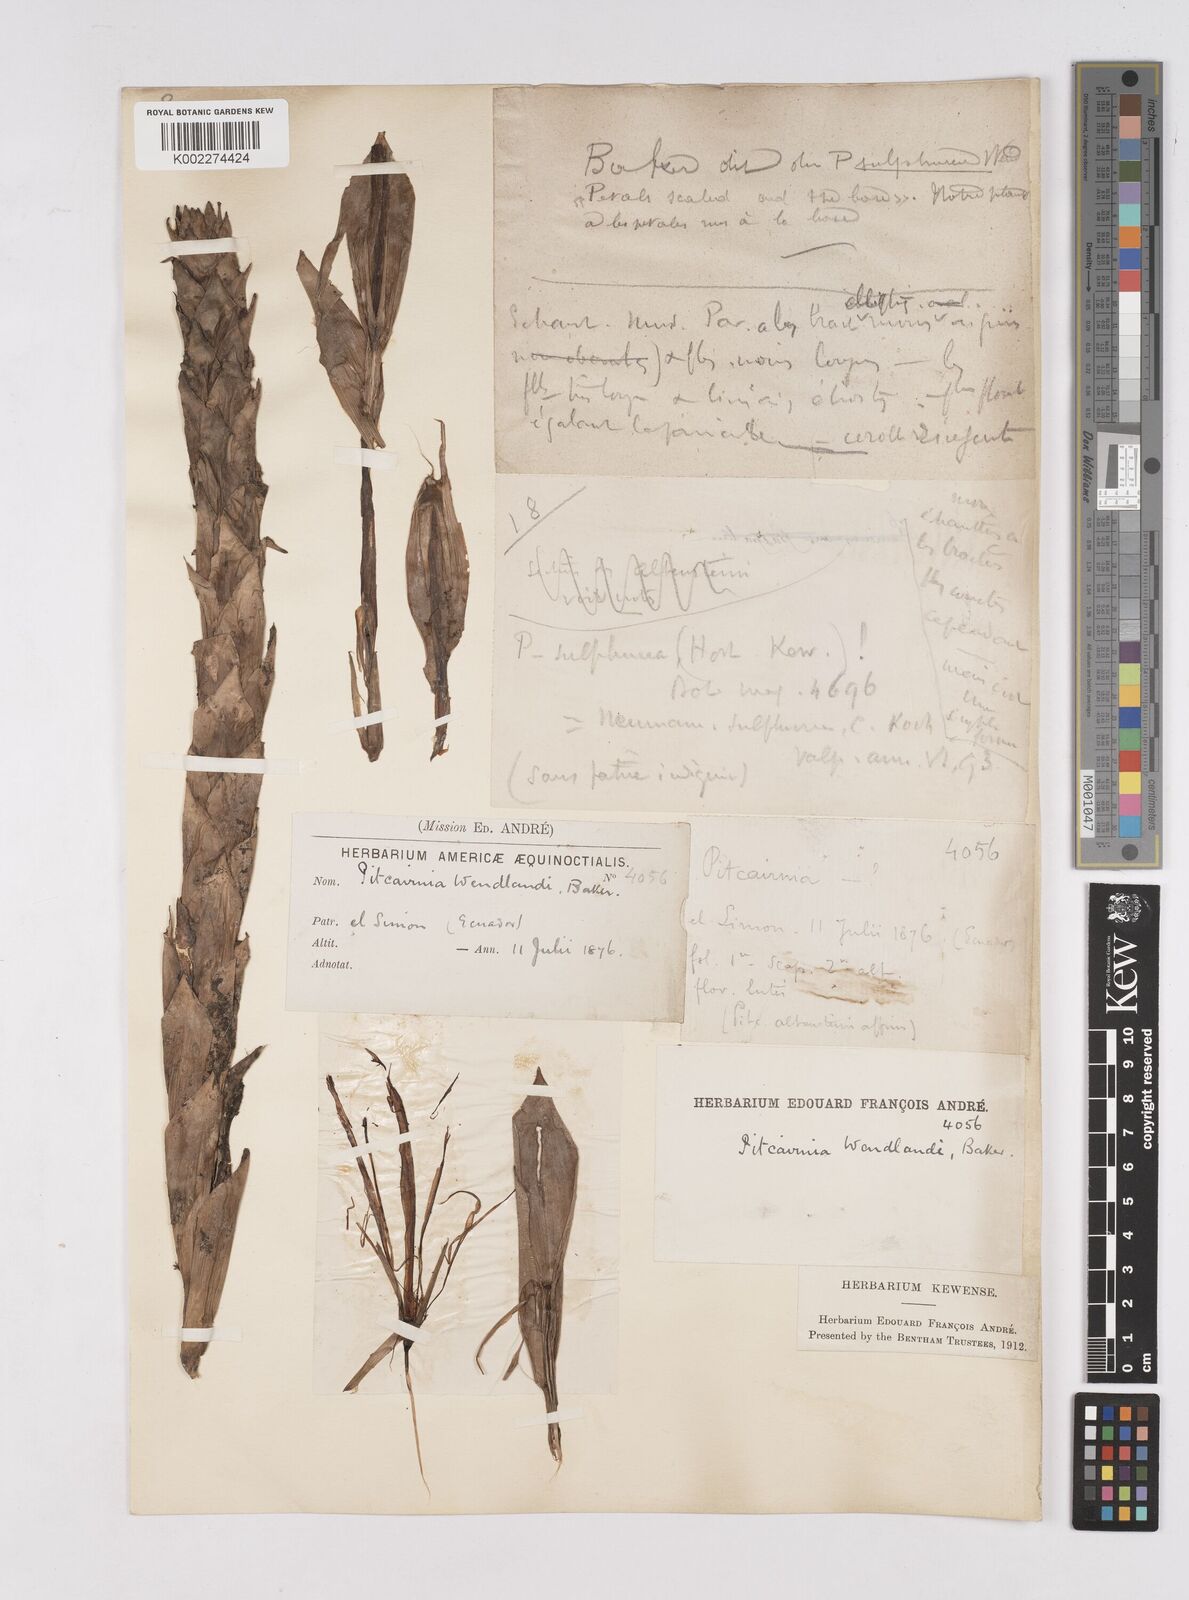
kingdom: Plantae
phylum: Tracheophyta
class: Liliopsida
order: Poales
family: Bromeliaceae
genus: Pitcairnia
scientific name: Pitcairnia wendlandii
